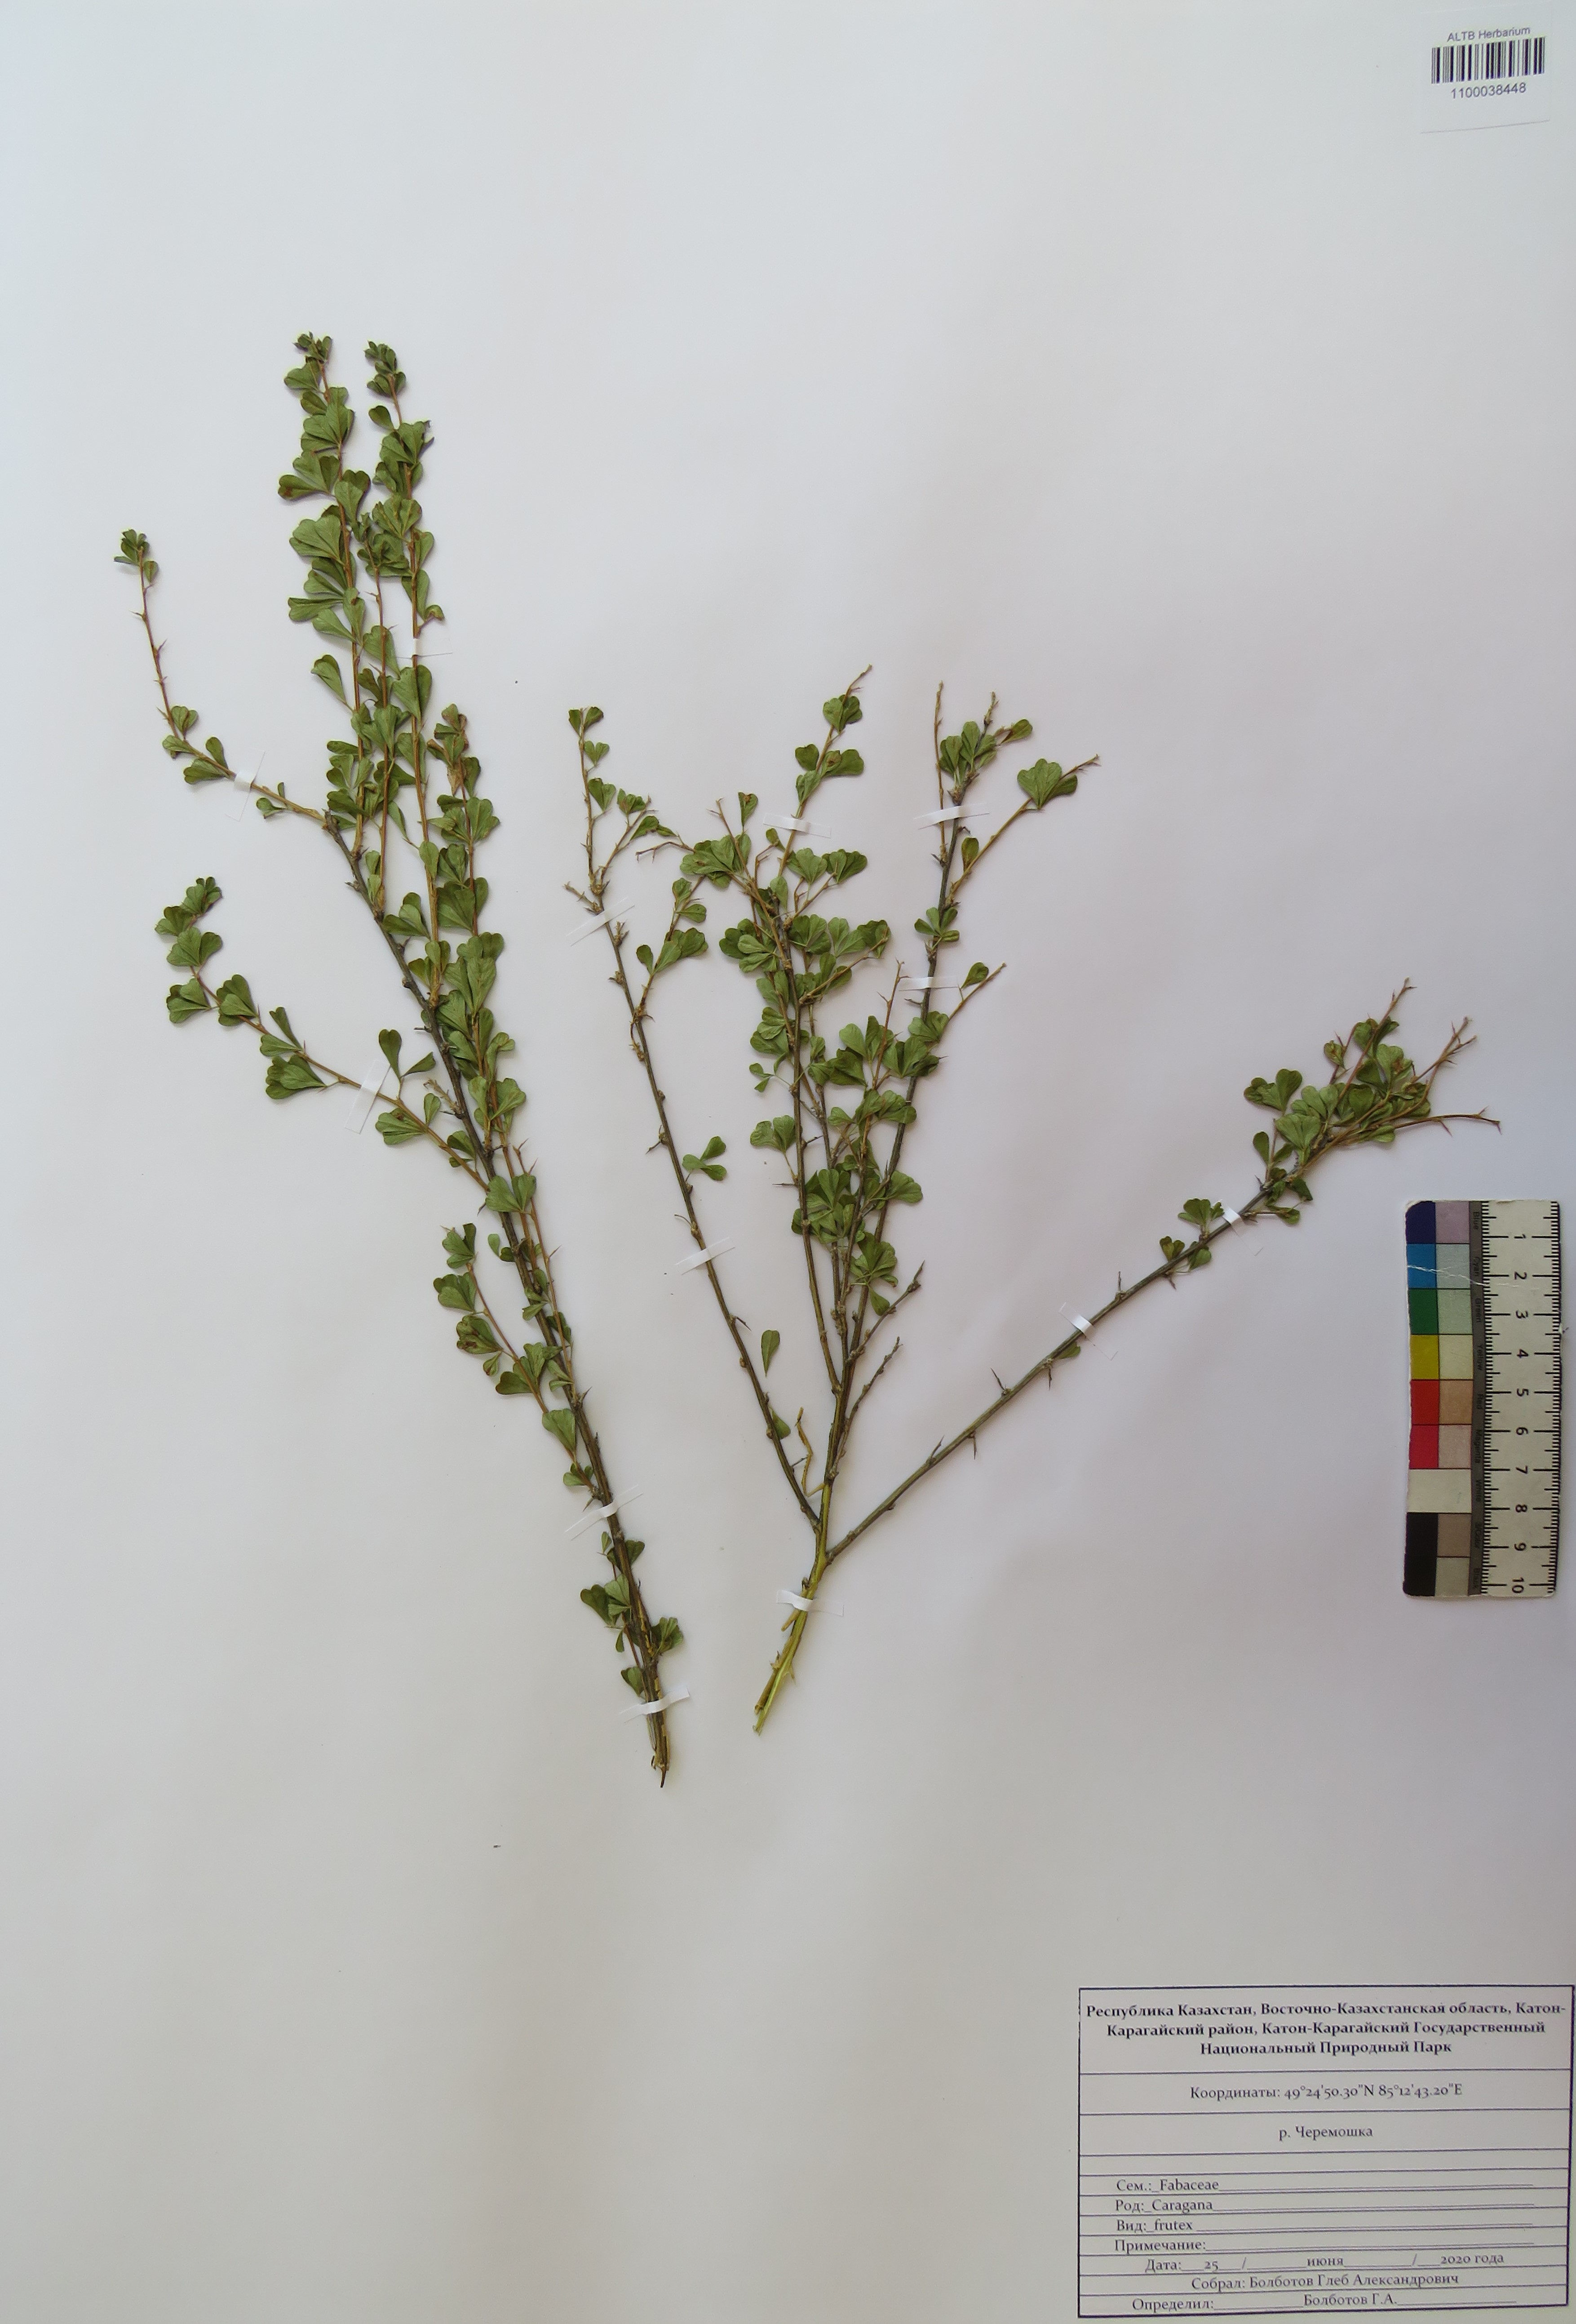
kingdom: Plantae
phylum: Tracheophyta
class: Magnoliopsida
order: Fabales
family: Fabaceae
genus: Caragana
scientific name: Caragana frutex
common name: Russian peashrub
